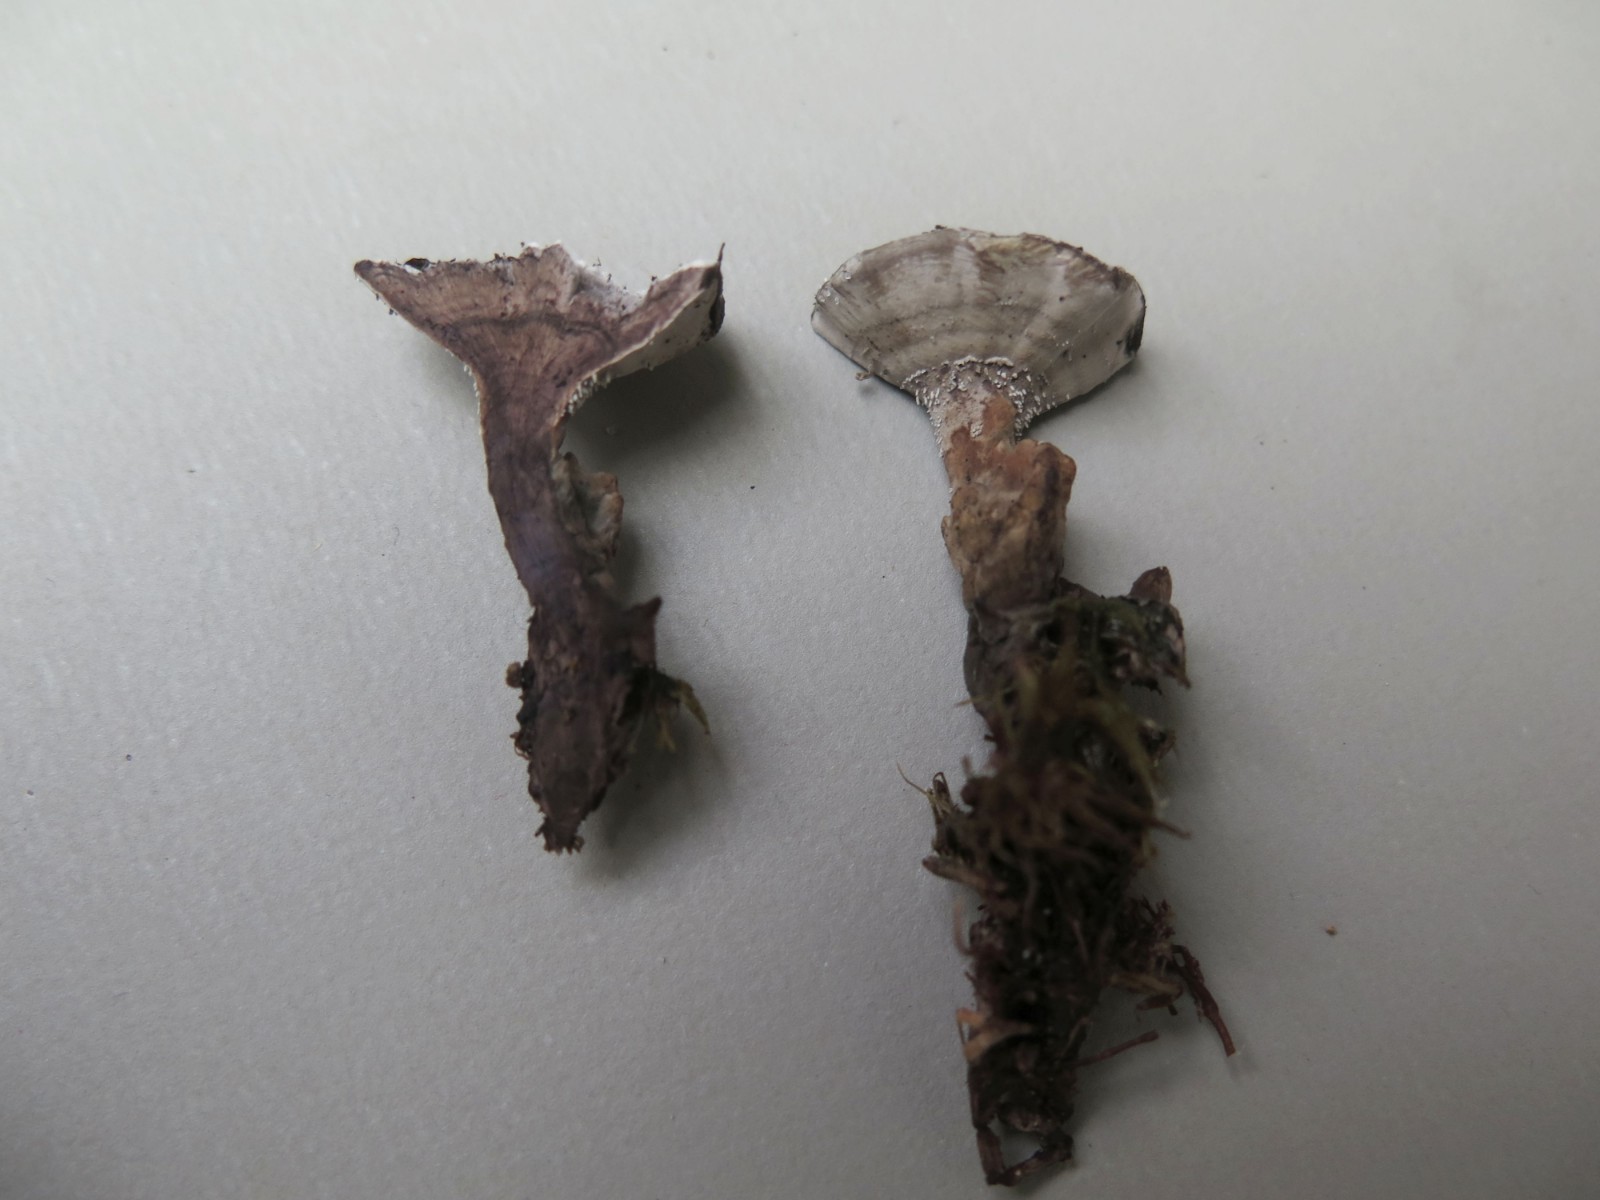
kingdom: Fungi
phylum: Basidiomycota
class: Agaricomycetes
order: Thelephorales
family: Thelephoraceae
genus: Phellodon
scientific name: Phellodon tomentosus
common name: vellugtende duftpigsvamp
